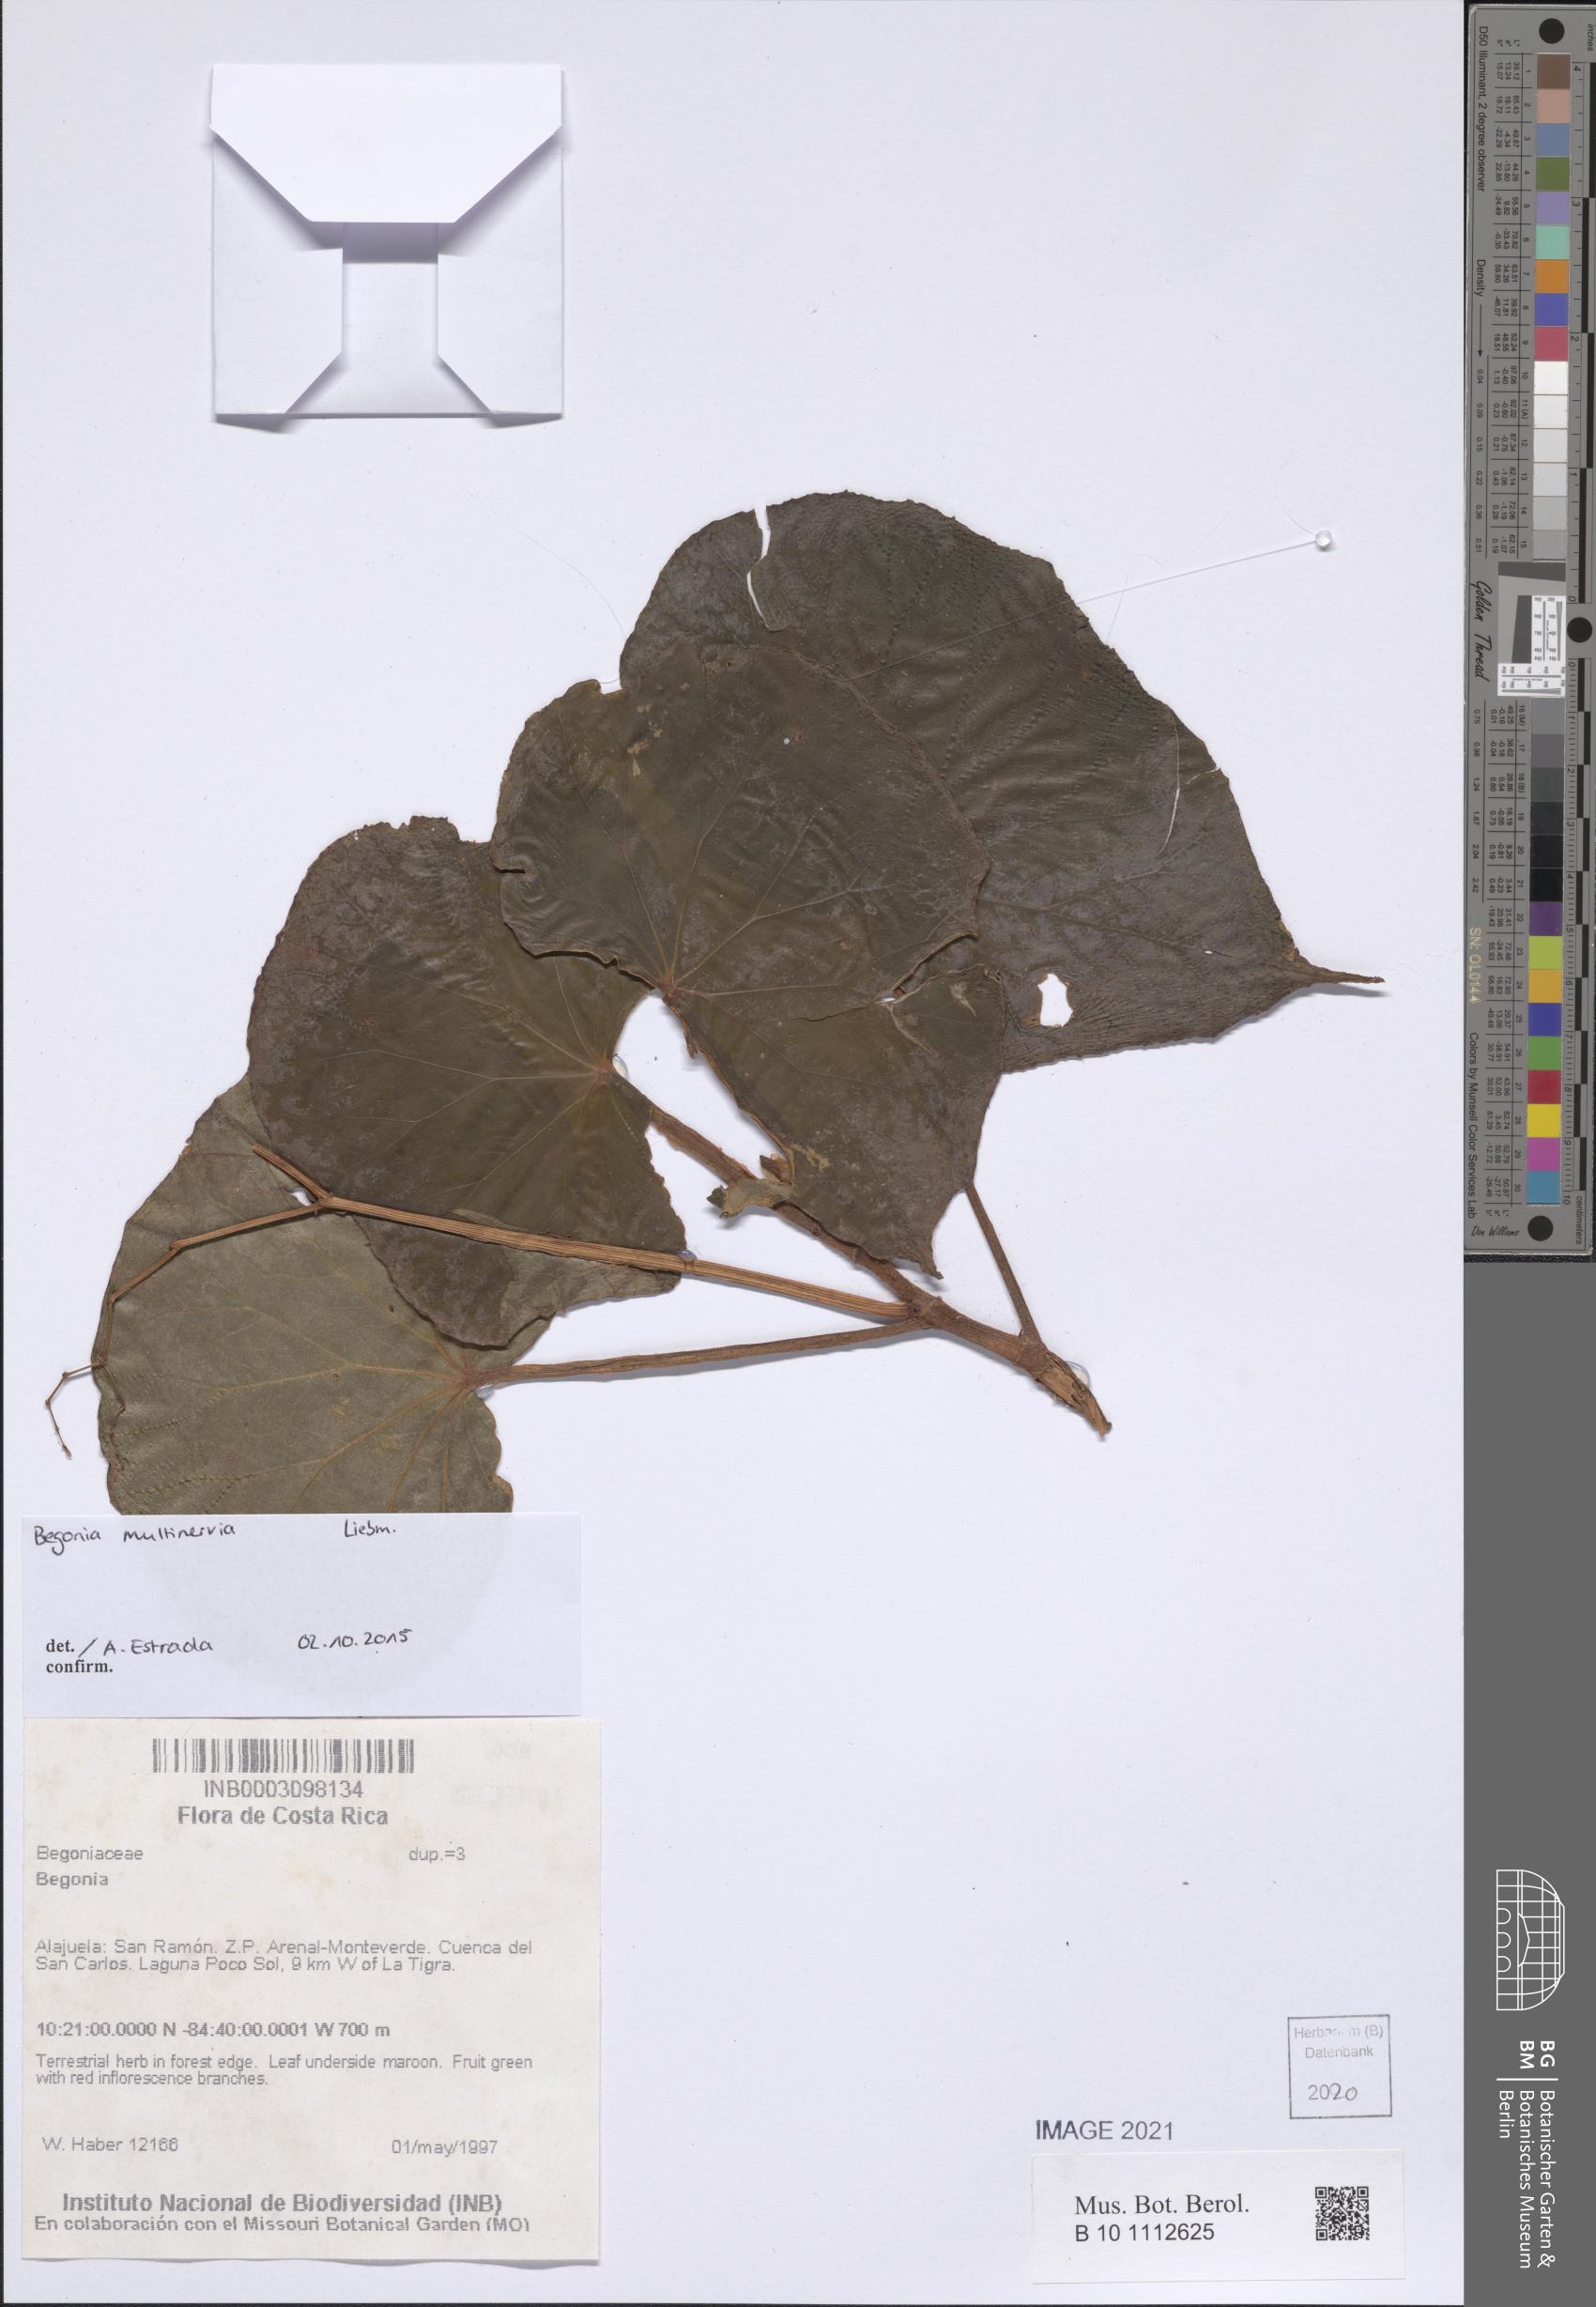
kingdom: Plantae
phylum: Tracheophyta
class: Magnoliopsida
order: Cucurbitales
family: Begoniaceae
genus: Begonia
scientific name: Begonia
